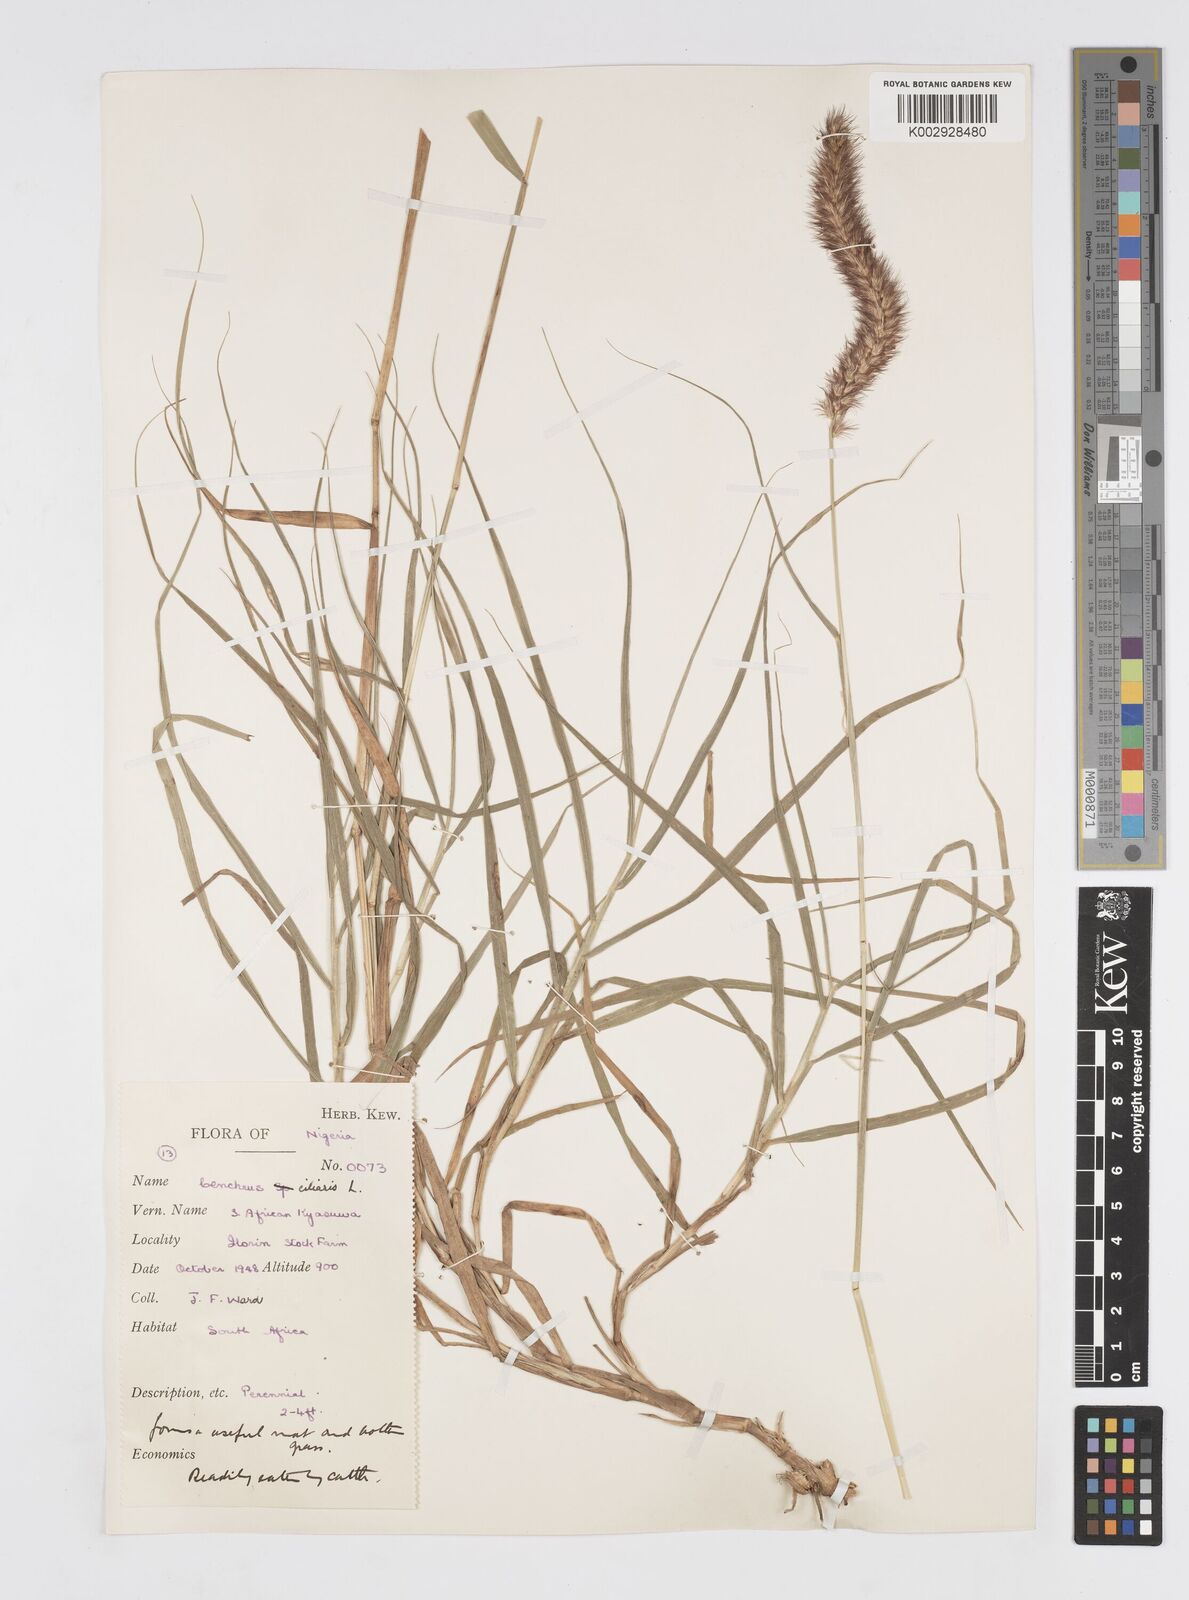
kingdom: Plantae
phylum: Tracheophyta
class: Liliopsida
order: Poales
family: Poaceae
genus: Cenchrus
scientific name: Cenchrus ciliaris
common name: Buffelgrass
